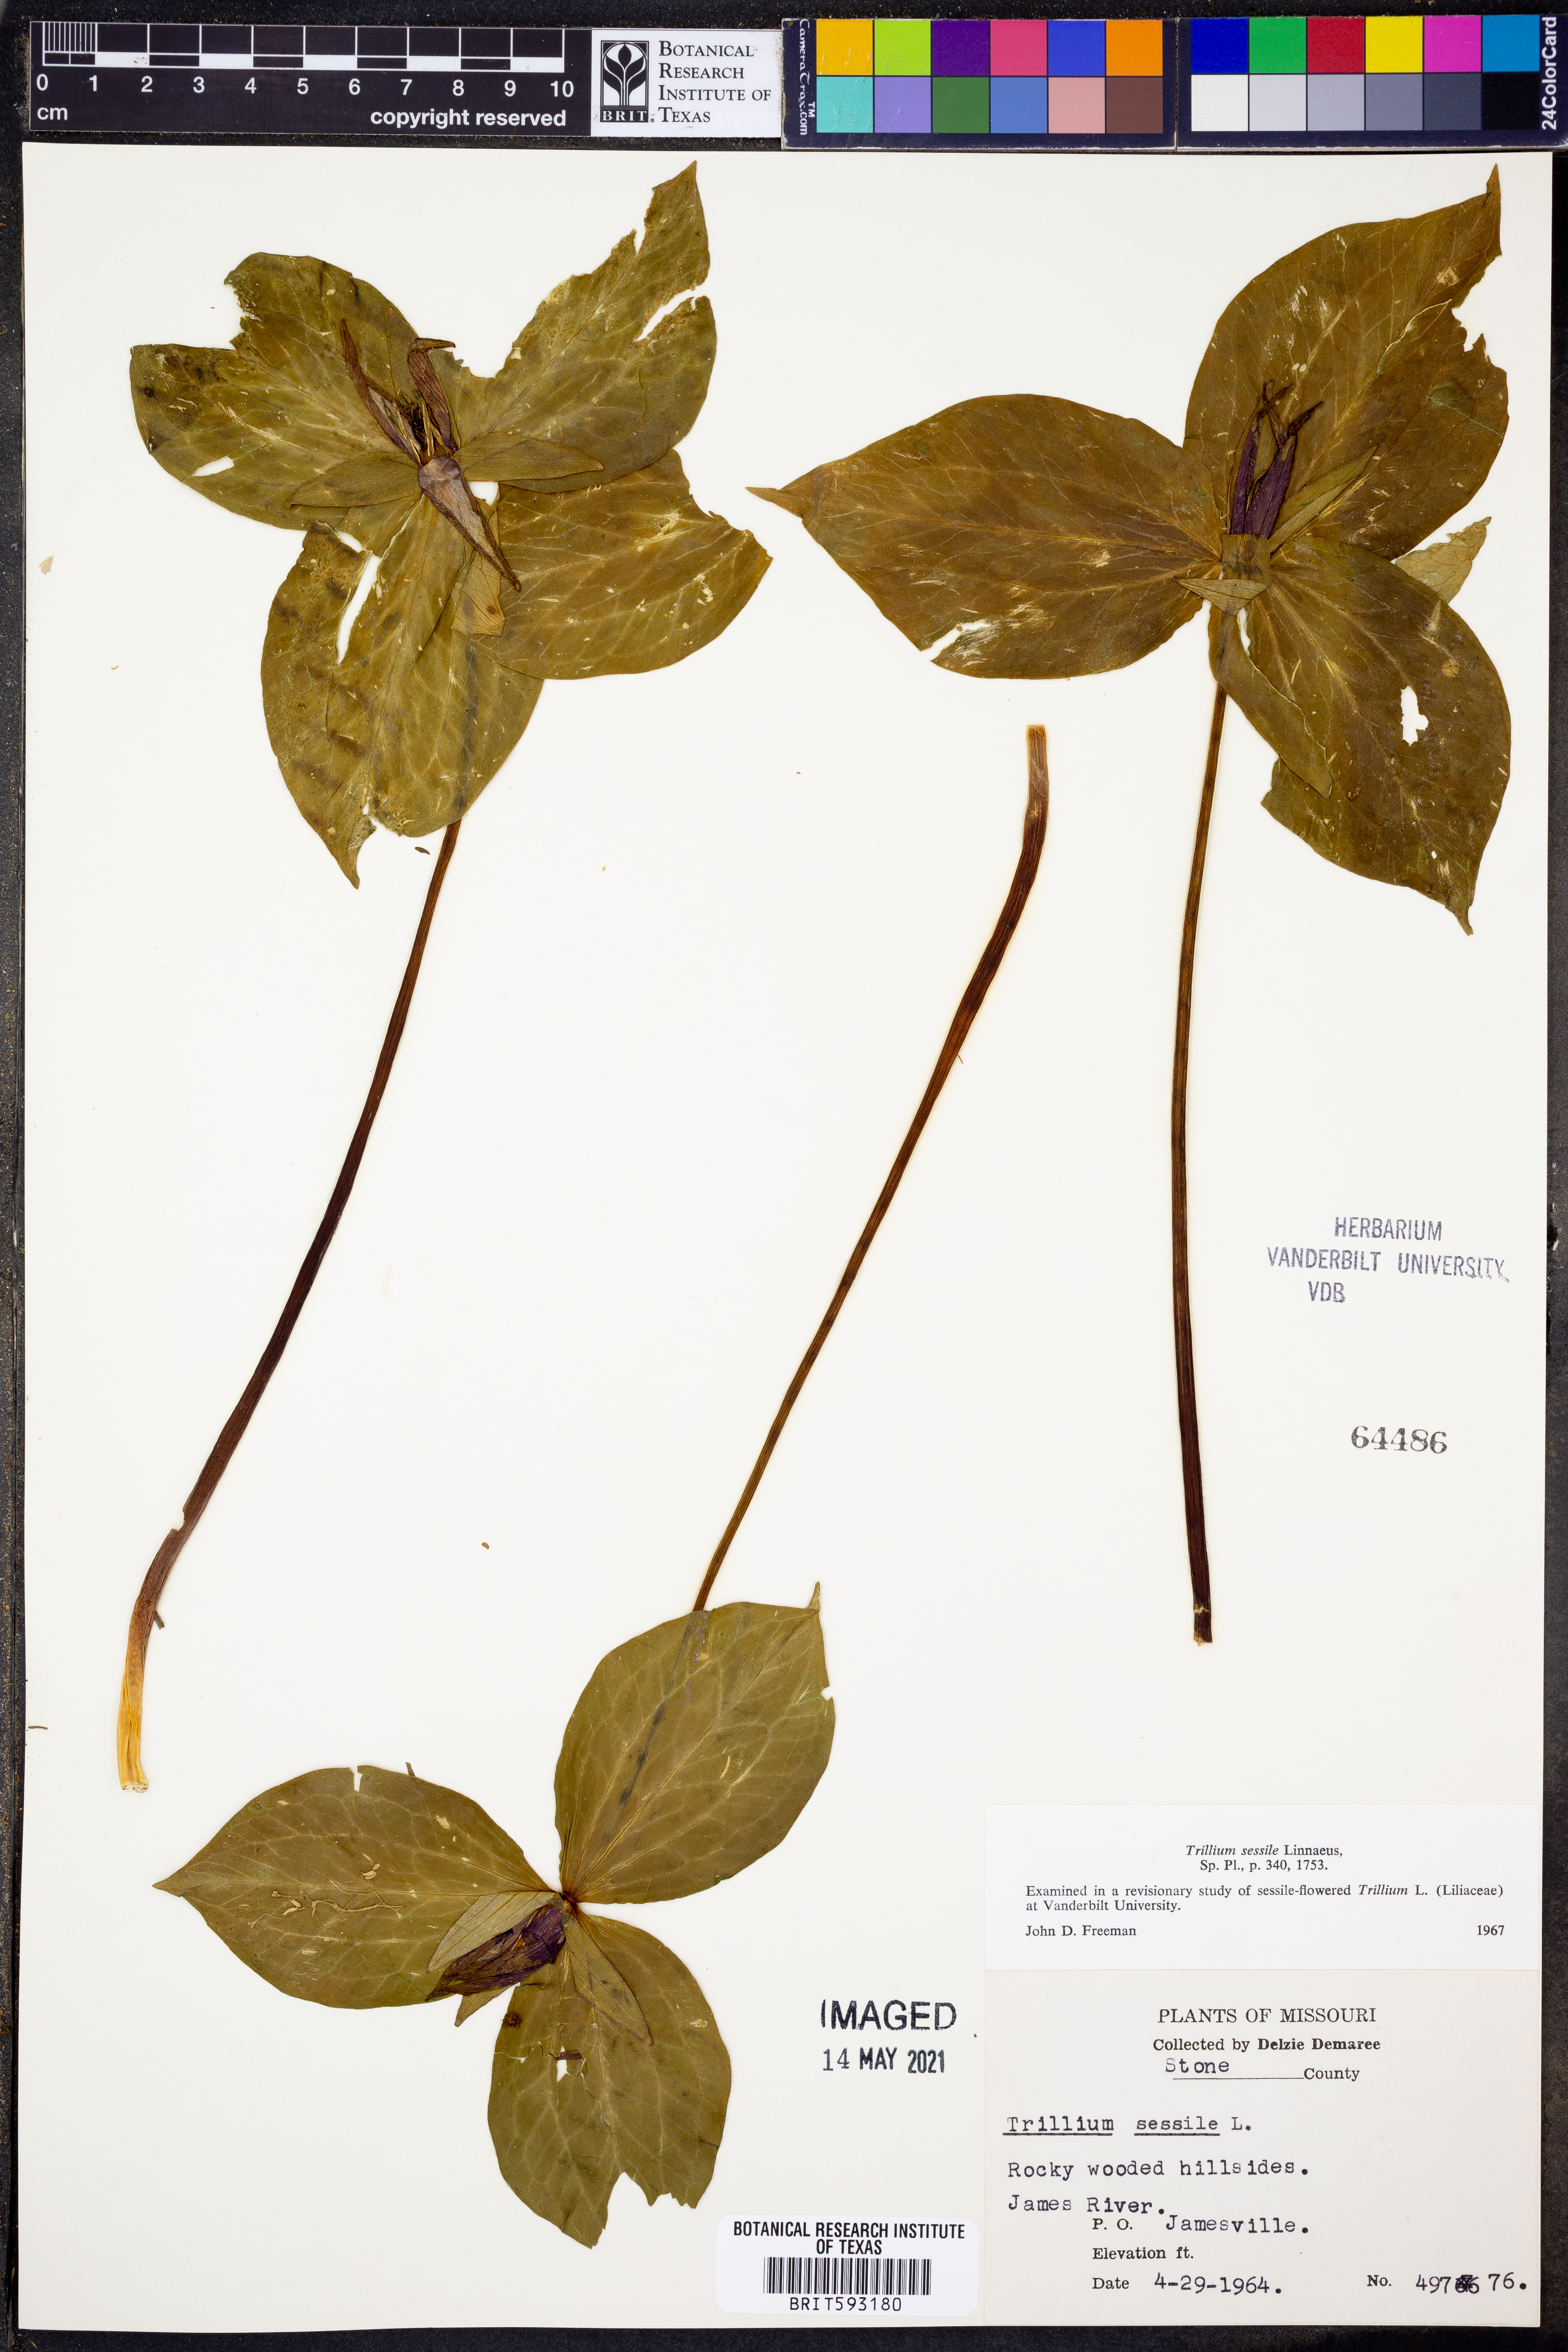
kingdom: Plantae
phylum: Tracheophyta
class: Liliopsida
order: Liliales
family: Melanthiaceae
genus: Trillium
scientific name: Trillium sessile
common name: Sessile trillium
